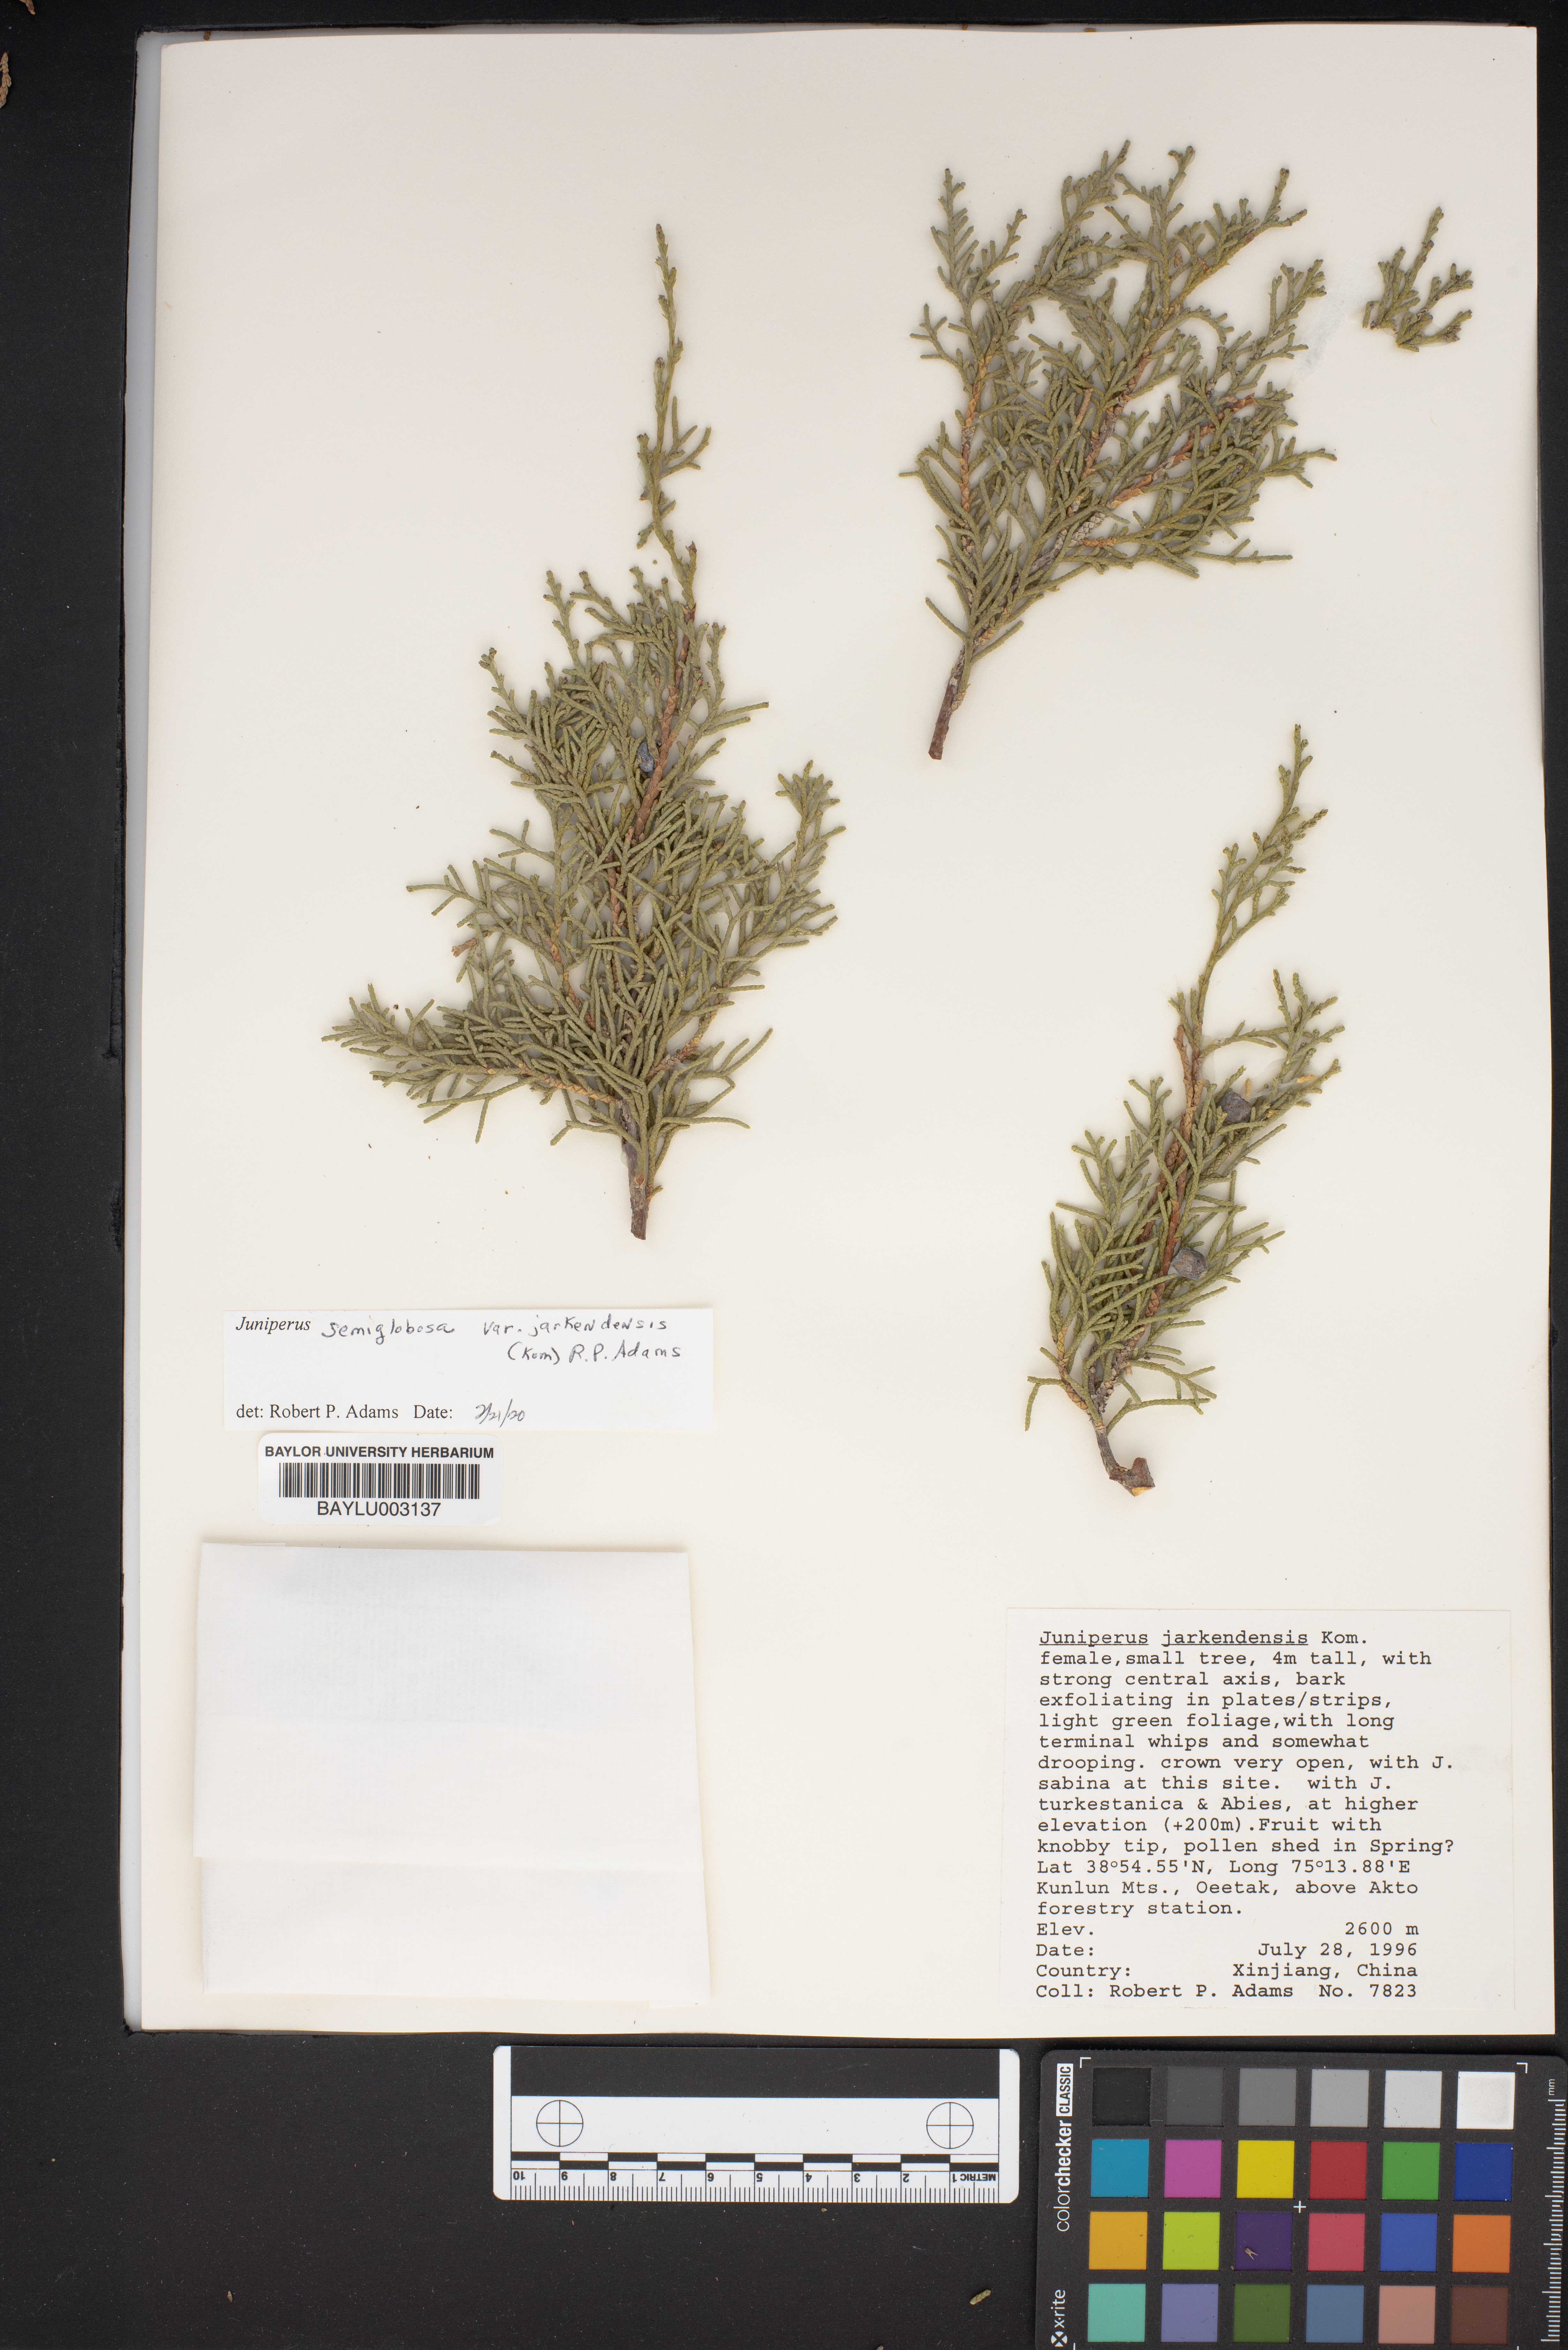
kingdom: Plantae
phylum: Tracheophyta
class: Pinopsida
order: Pinales
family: Cupressaceae
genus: Juniperus
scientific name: Juniperus
